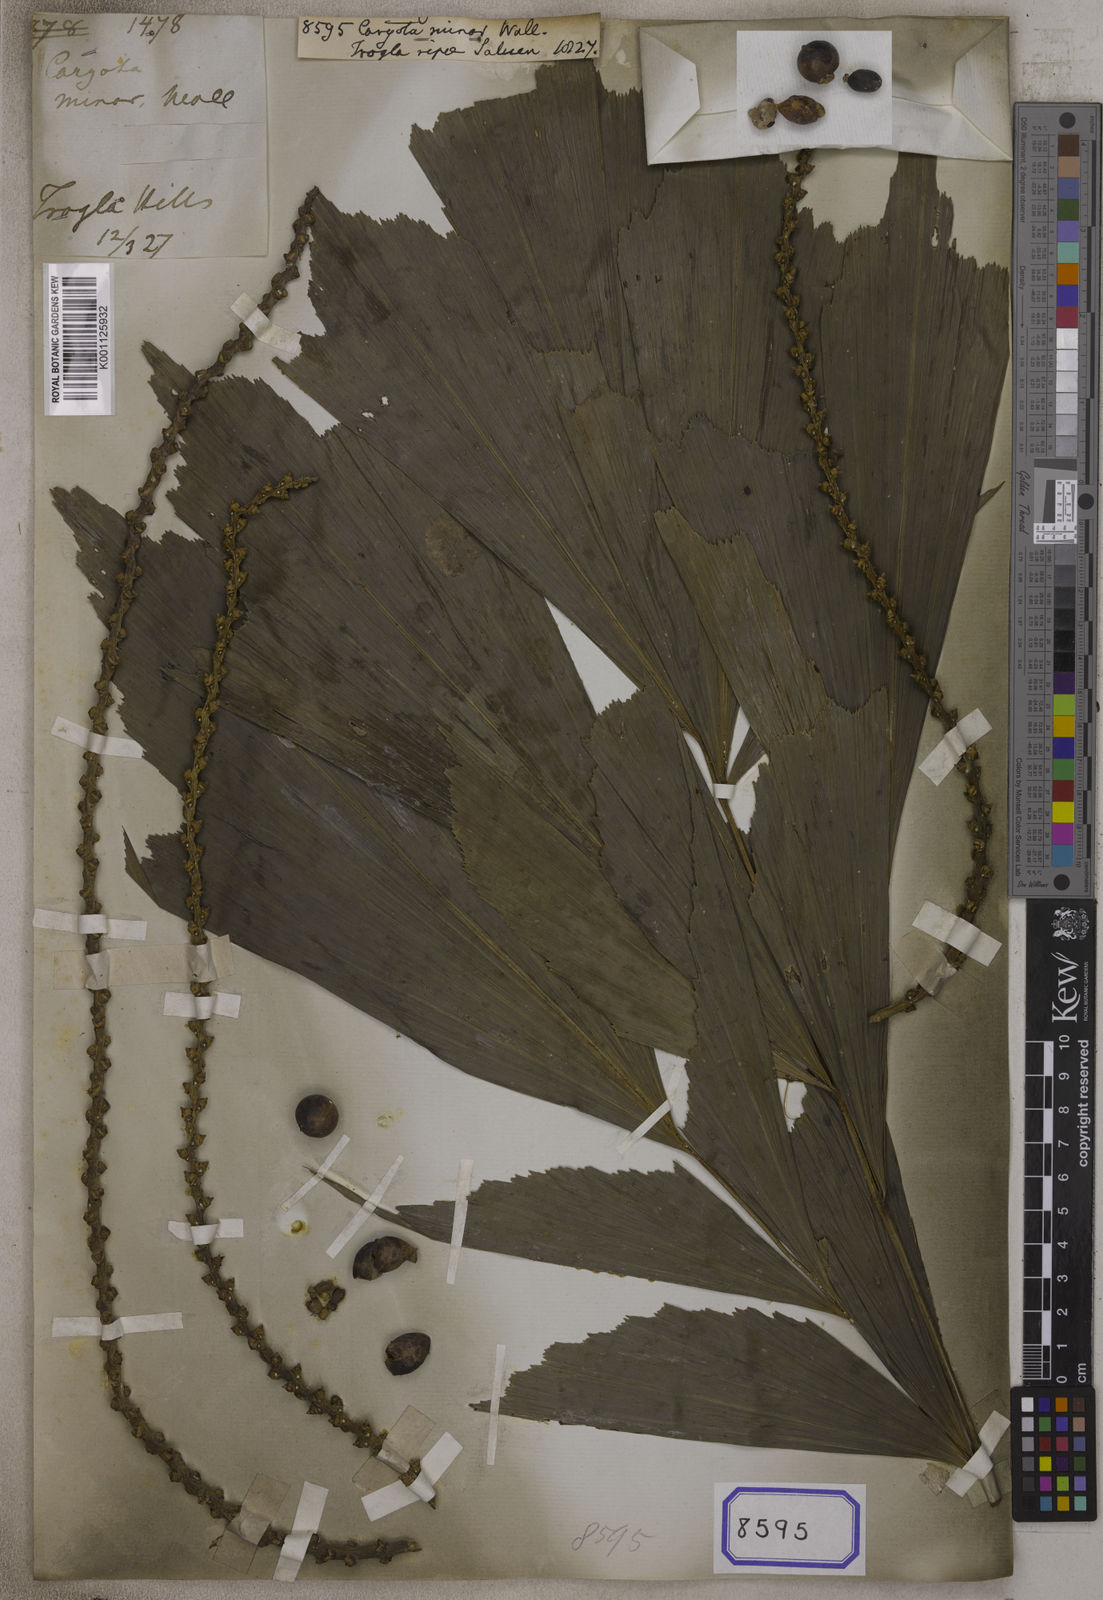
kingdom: Plantae
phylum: Tracheophyta
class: Liliopsida
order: Arecales
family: Arecaceae
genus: Caryota
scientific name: Caryota
